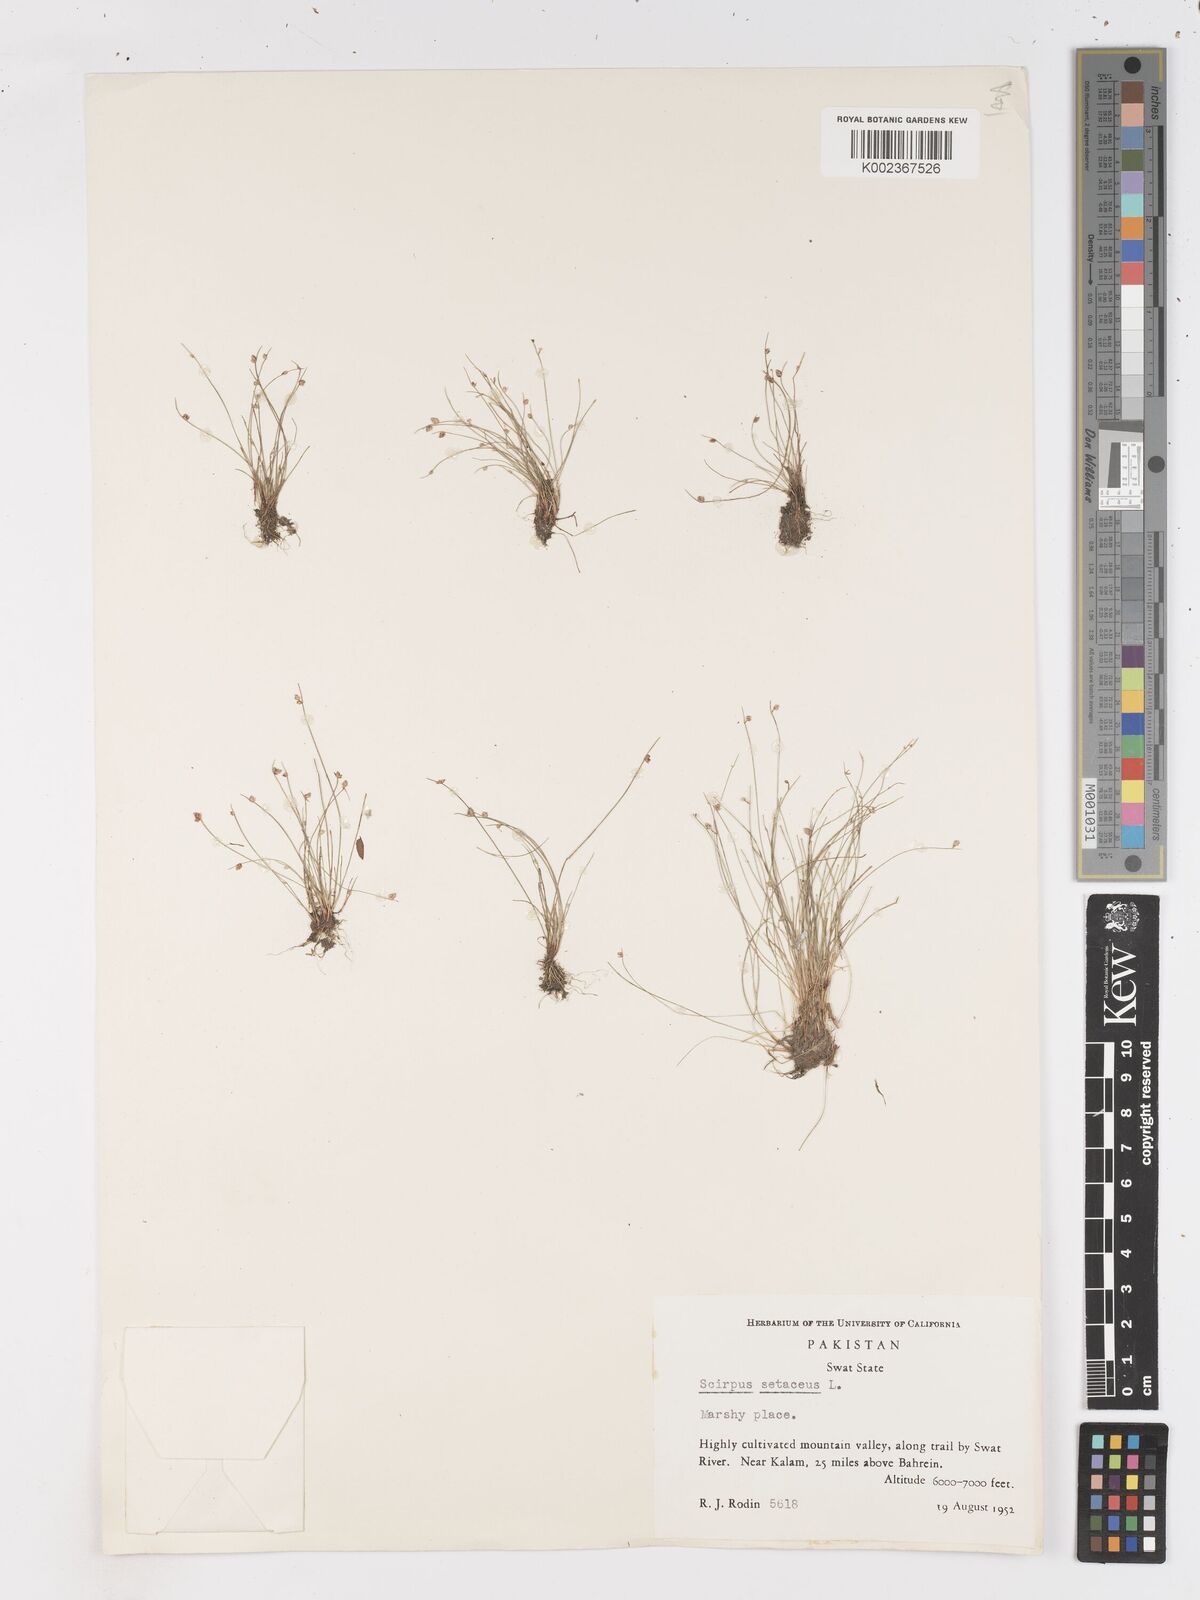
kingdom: Plantae
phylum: Tracheophyta
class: Liliopsida
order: Poales
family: Cyperaceae
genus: Isolepis
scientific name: Isolepis setacea
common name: Bristle club-rush
